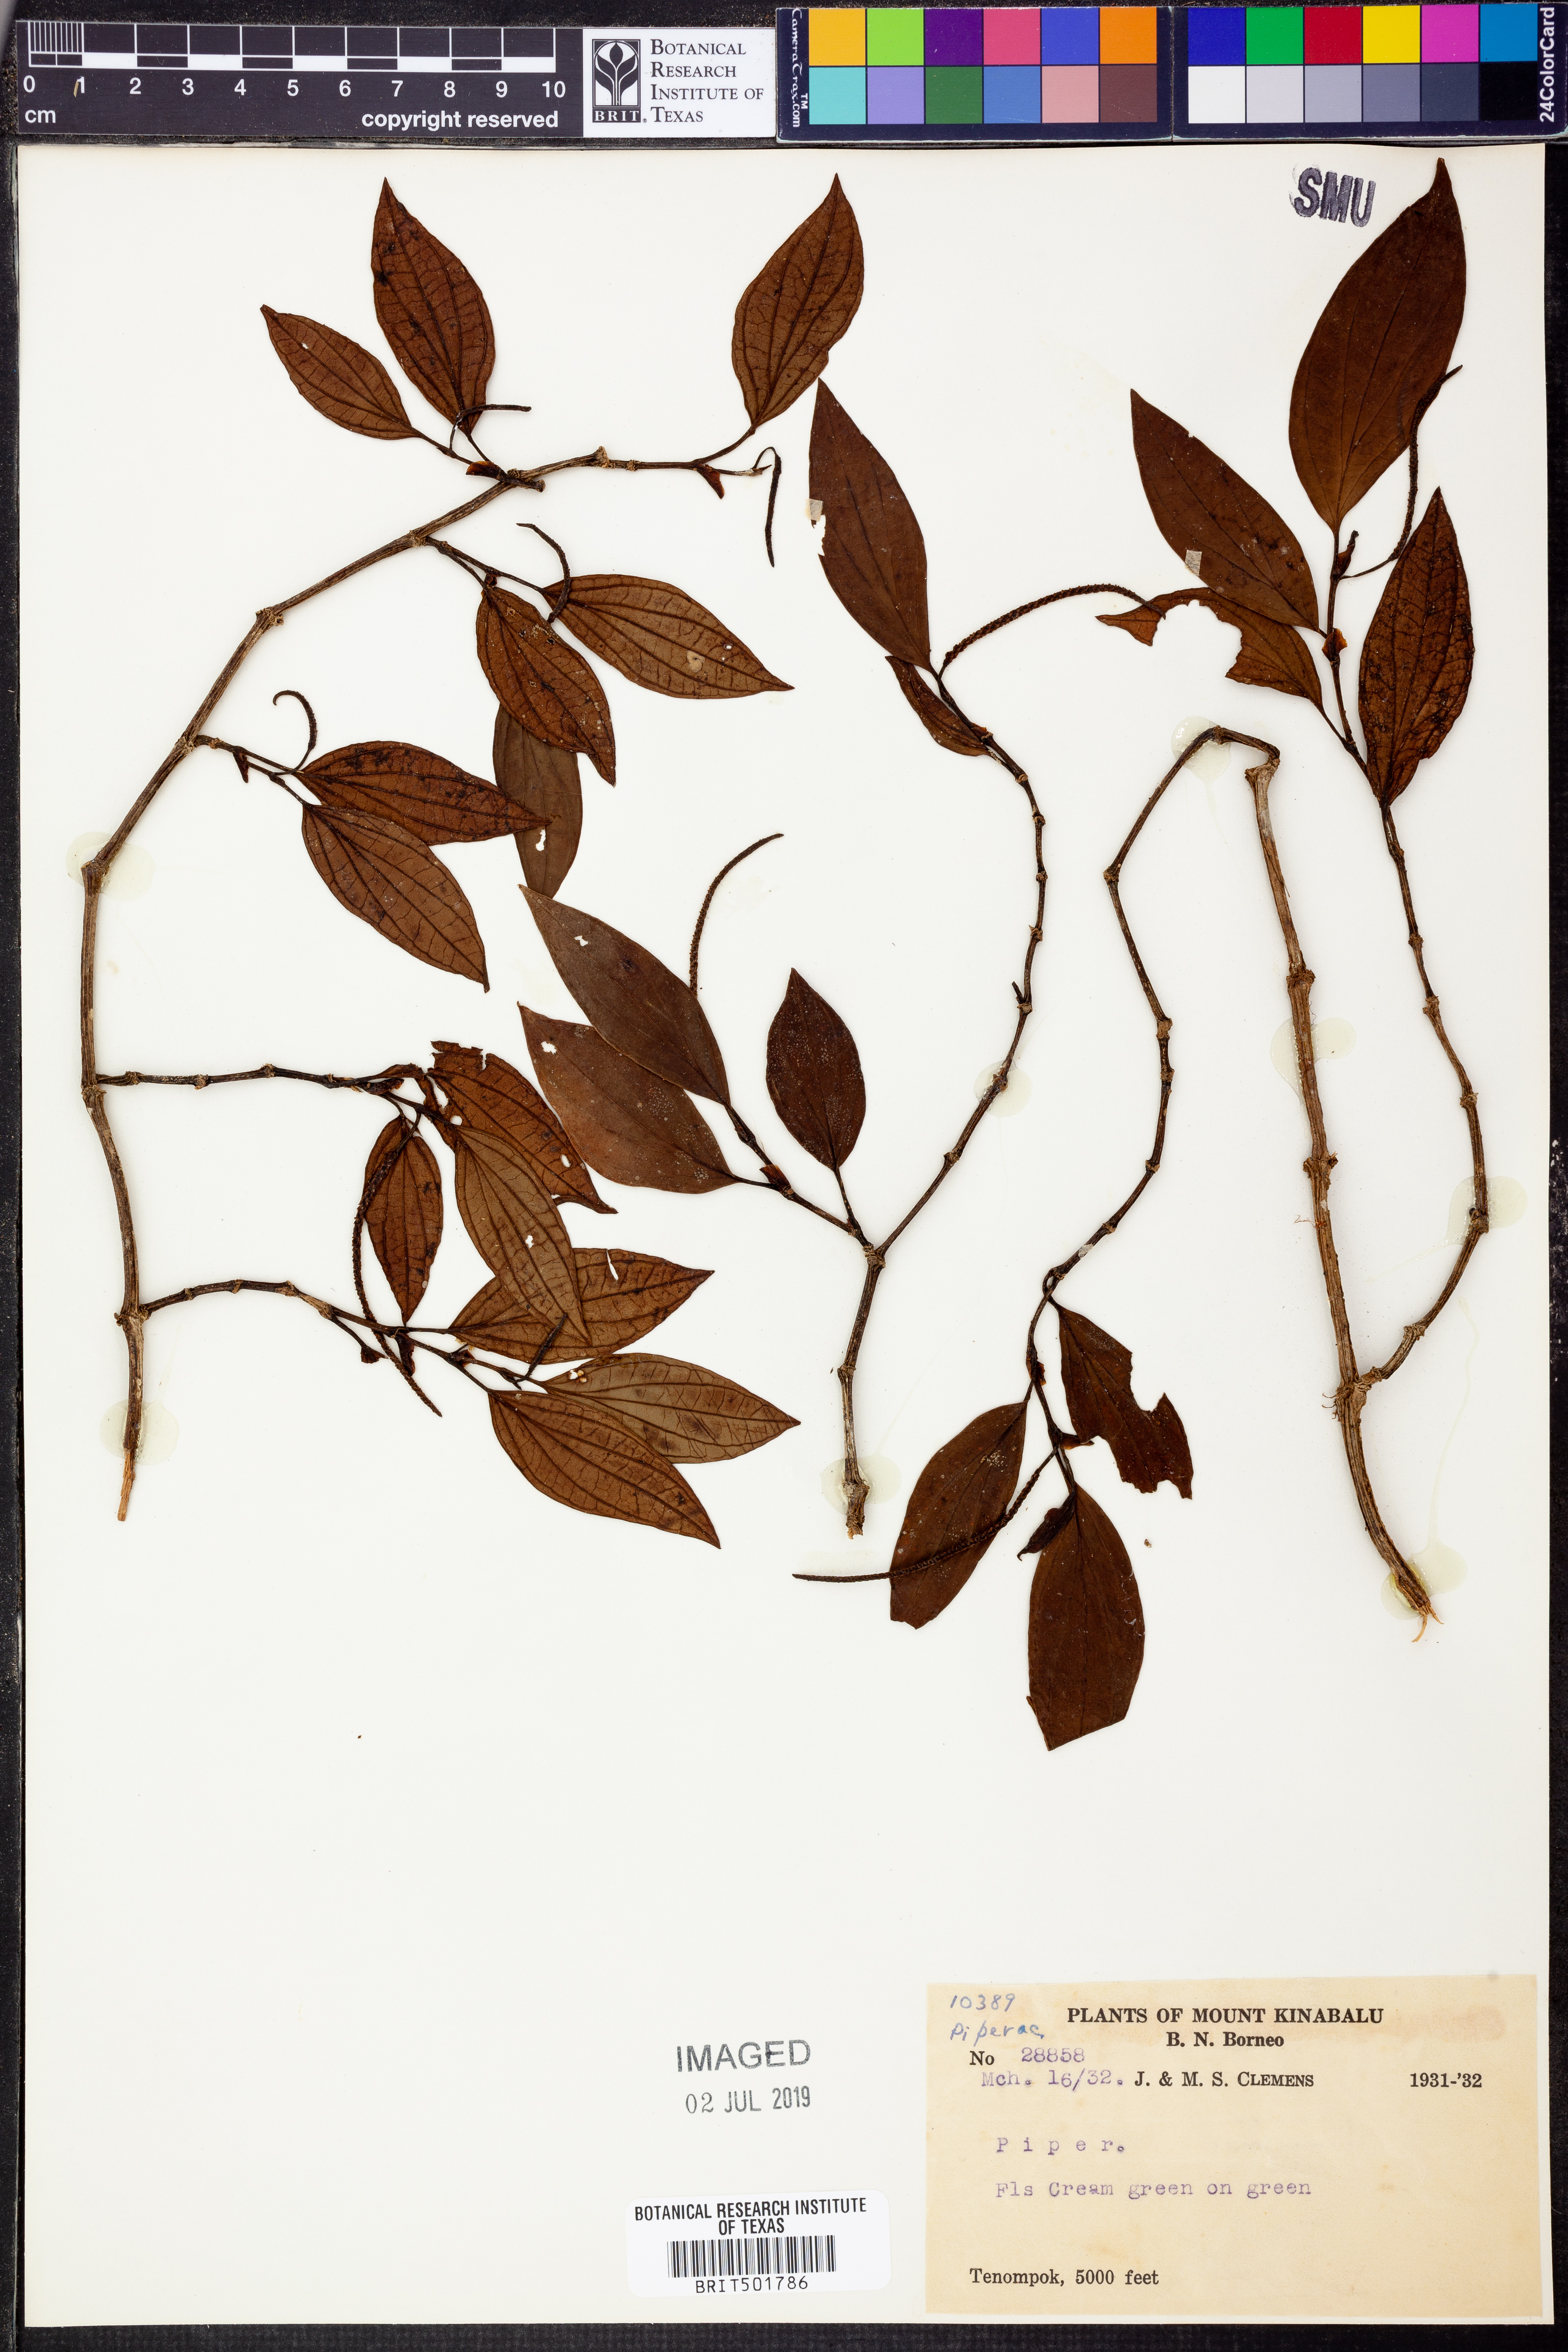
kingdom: Plantae
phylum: Tracheophyta
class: Magnoliopsida
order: Piperales
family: Piperaceae
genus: Piper
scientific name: Piper
